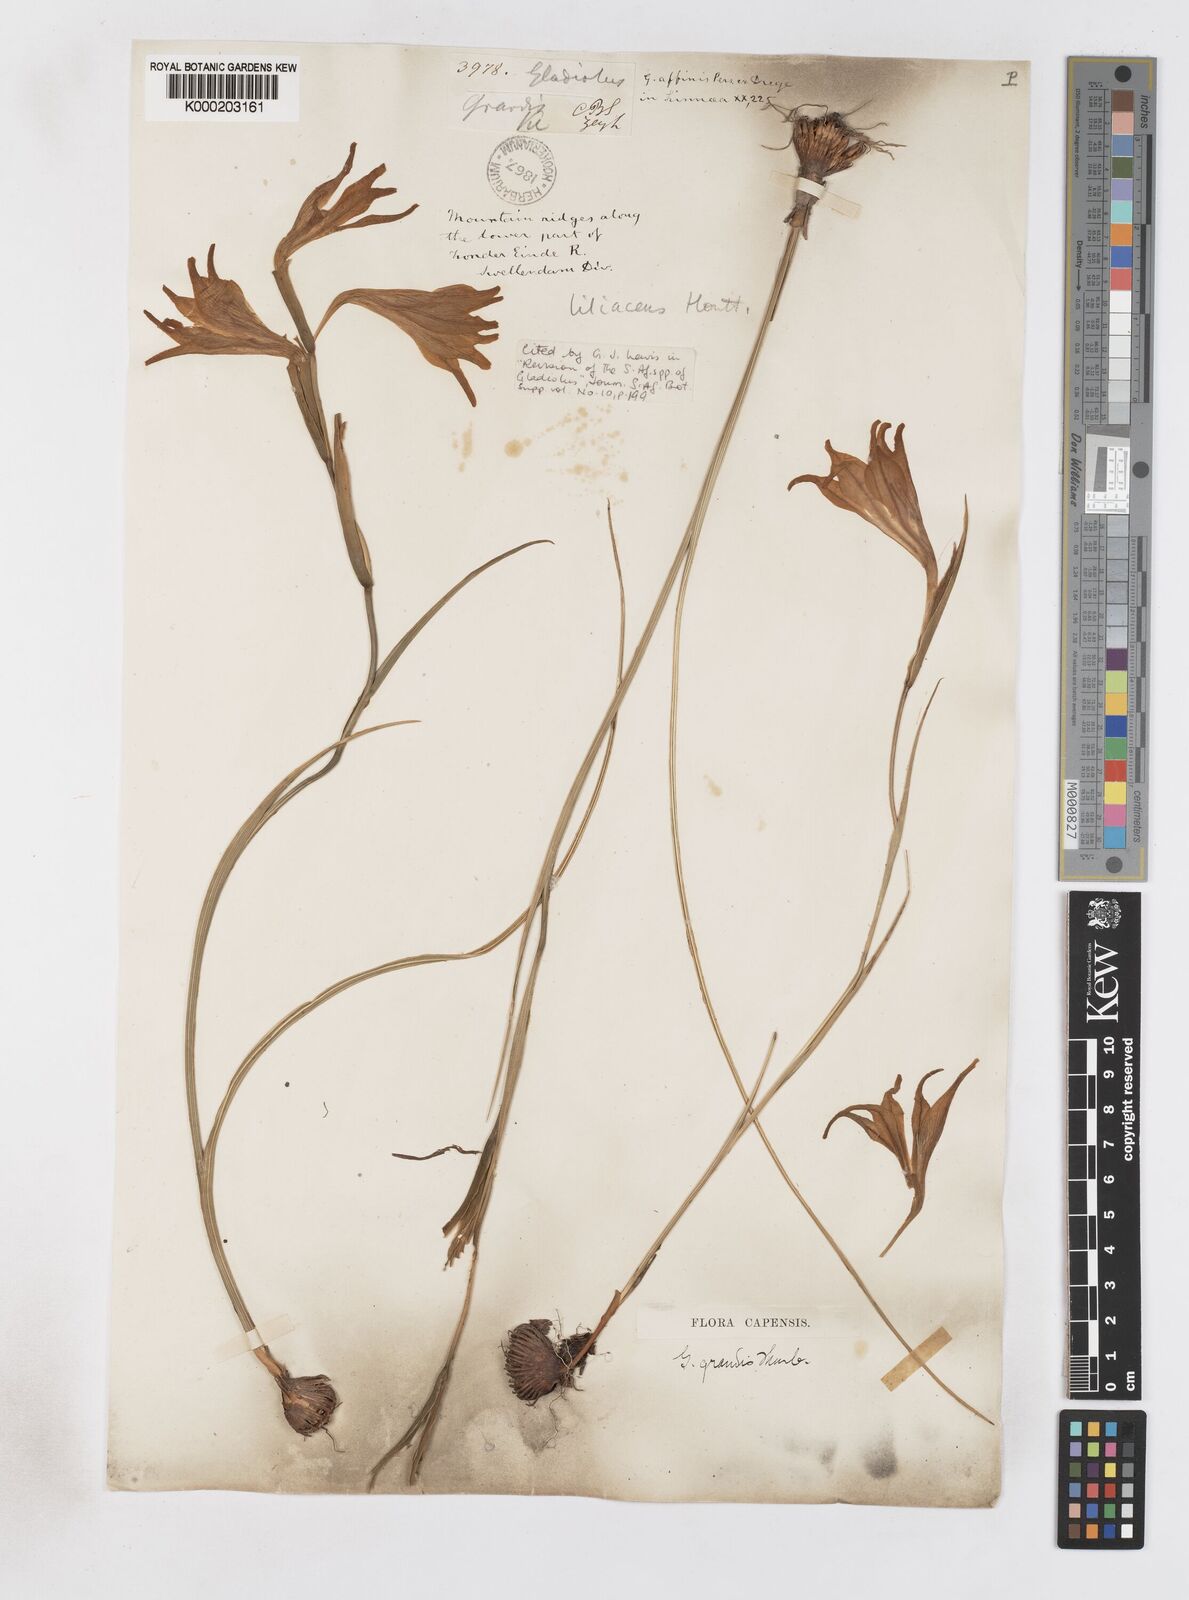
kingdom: Plantae
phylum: Tracheophyta
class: Liliopsida
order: Asparagales
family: Iridaceae
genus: Gladiolus
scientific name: Gladiolus liliaceus
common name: Large brown afrikaner
